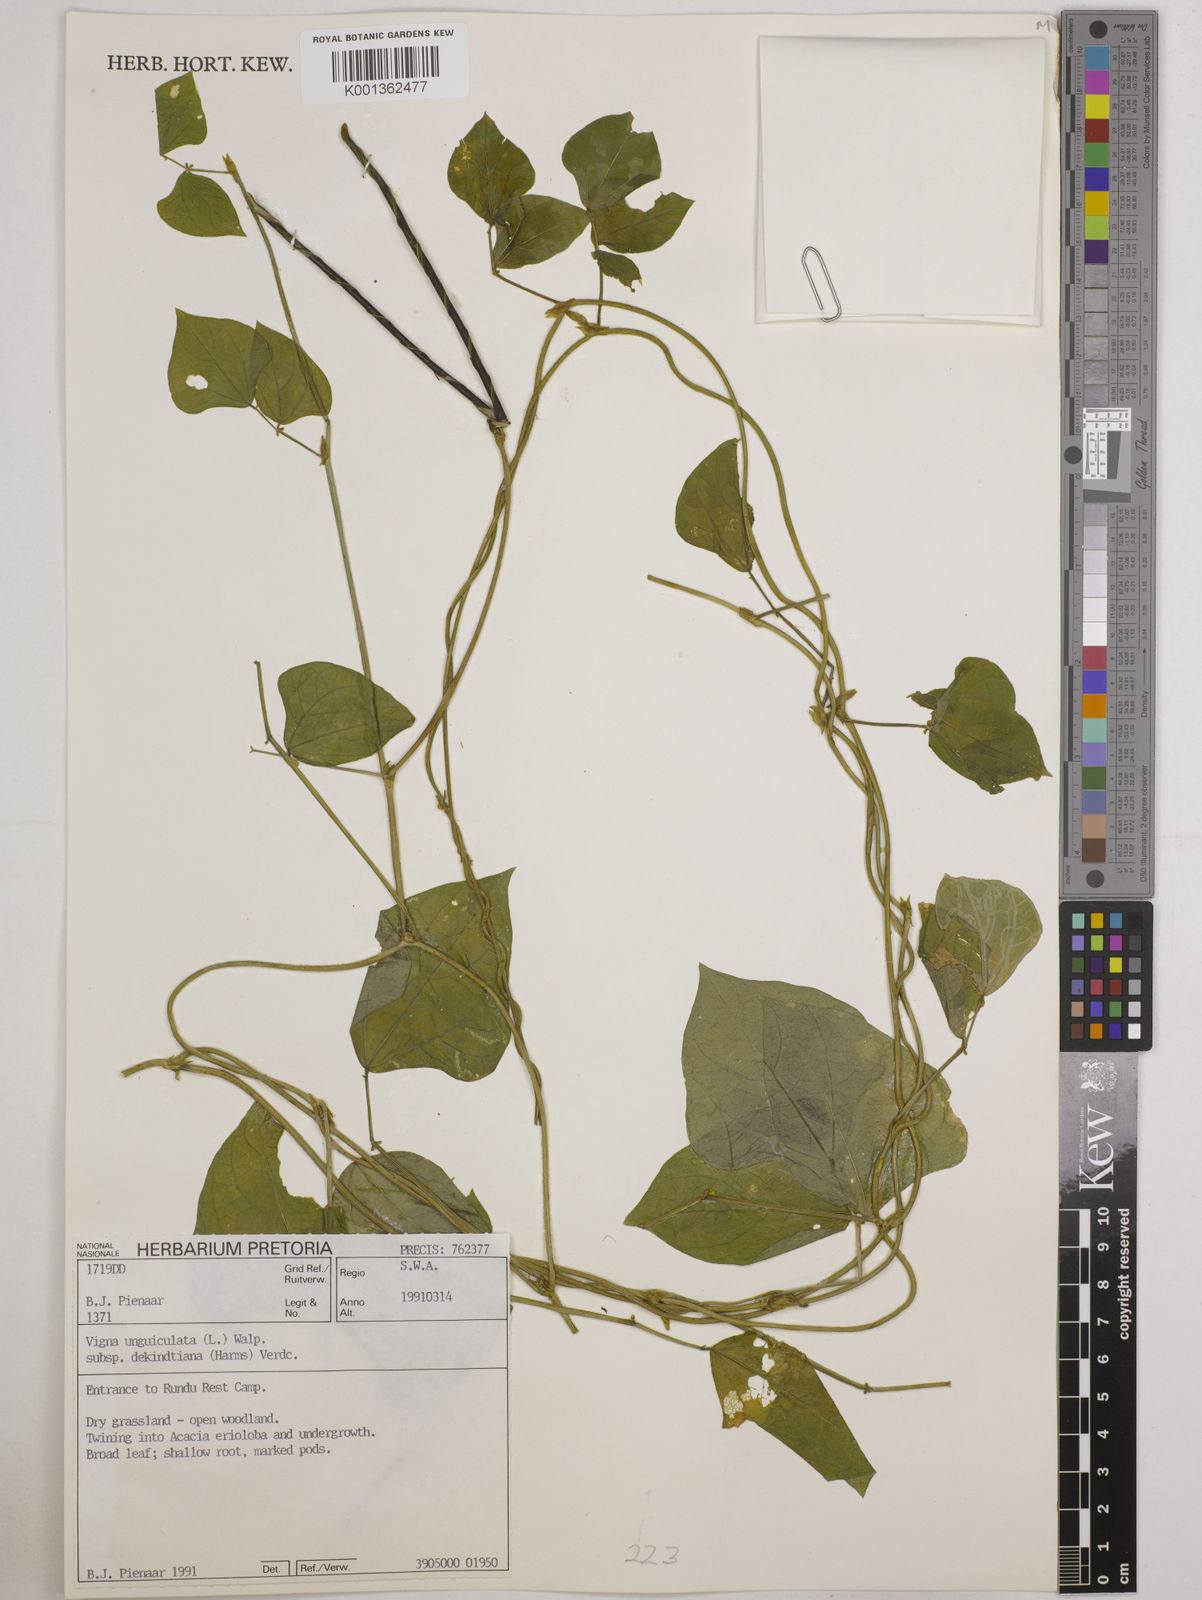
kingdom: Plantae
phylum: Tracheophyta
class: Magnoliopsida
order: Fabales
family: Fabaceae
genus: Vigna
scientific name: Vigna
